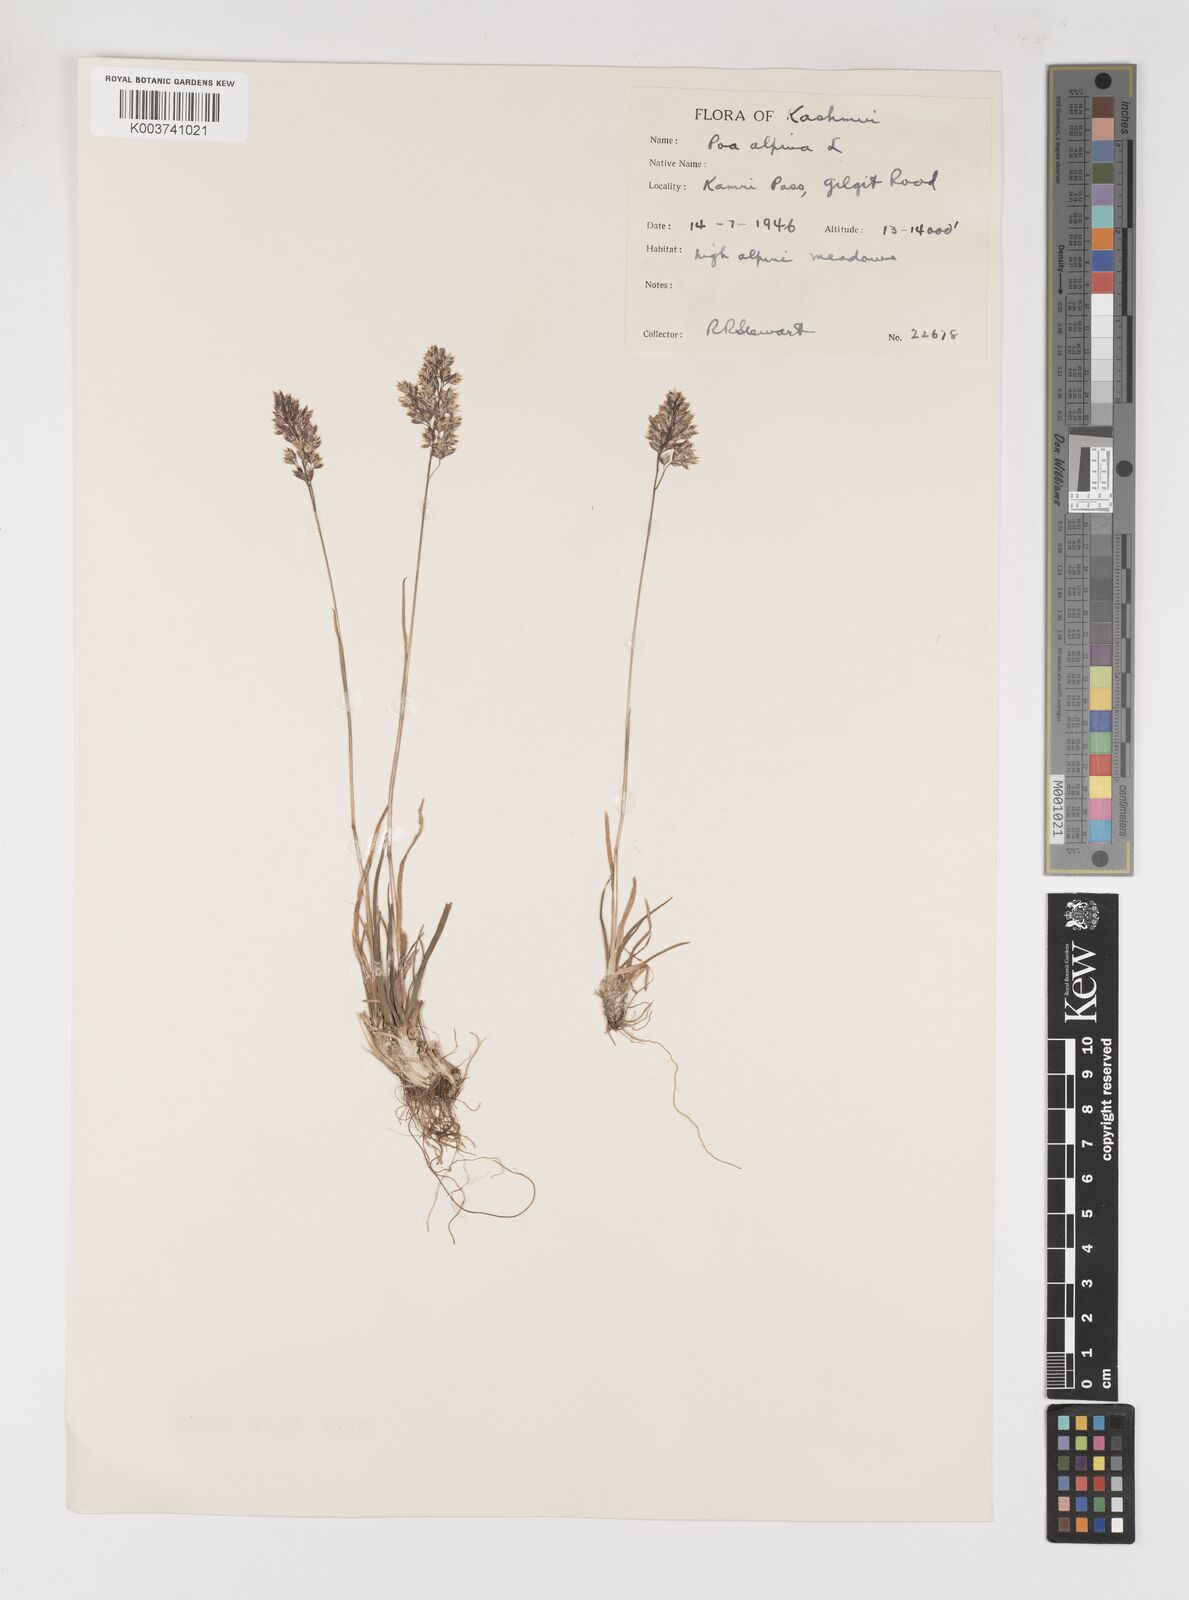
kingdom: Plantae
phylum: Tracheophyta
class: Liliopsida
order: Poales
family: Poaceae
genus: Poa
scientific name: Poa alpina
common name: Alpine bluegrass
